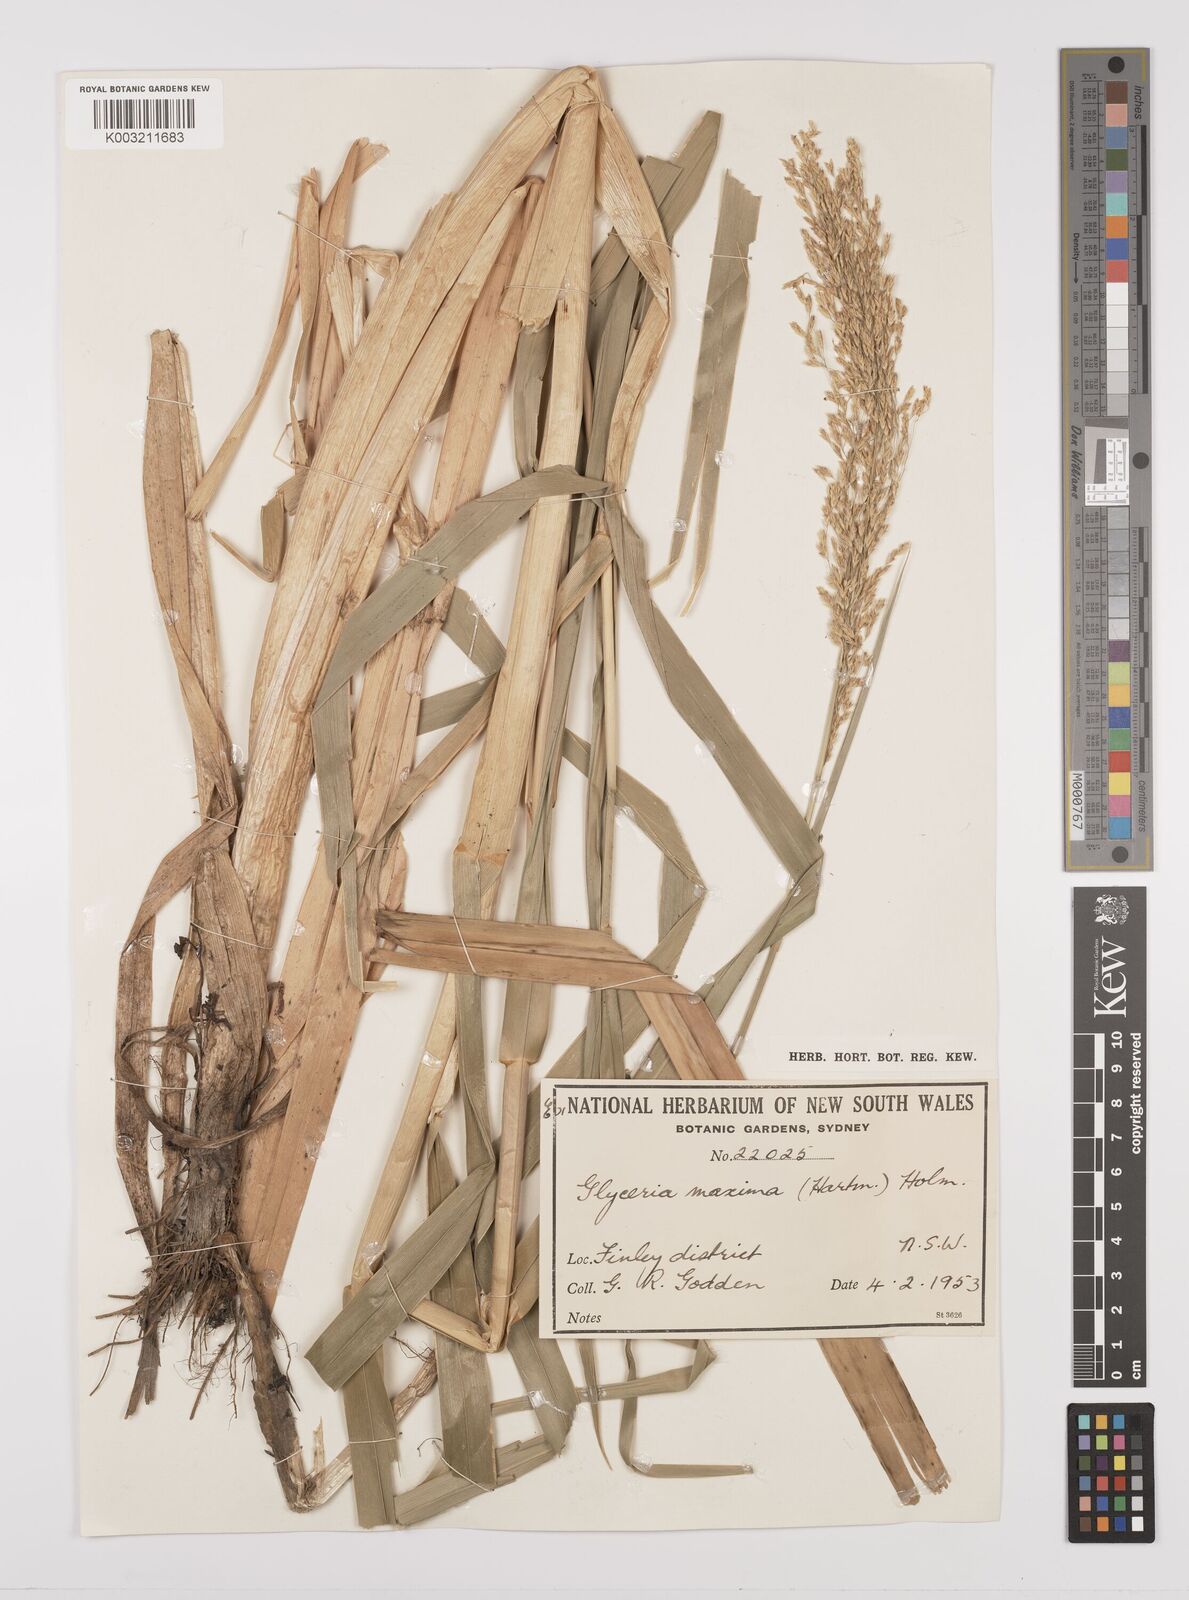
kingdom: Plantae
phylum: Tracheophyta
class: Liliopsida
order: Poales
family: Poaceae
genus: Glyceria
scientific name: Glyceria maxima
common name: Reed mannagrass
